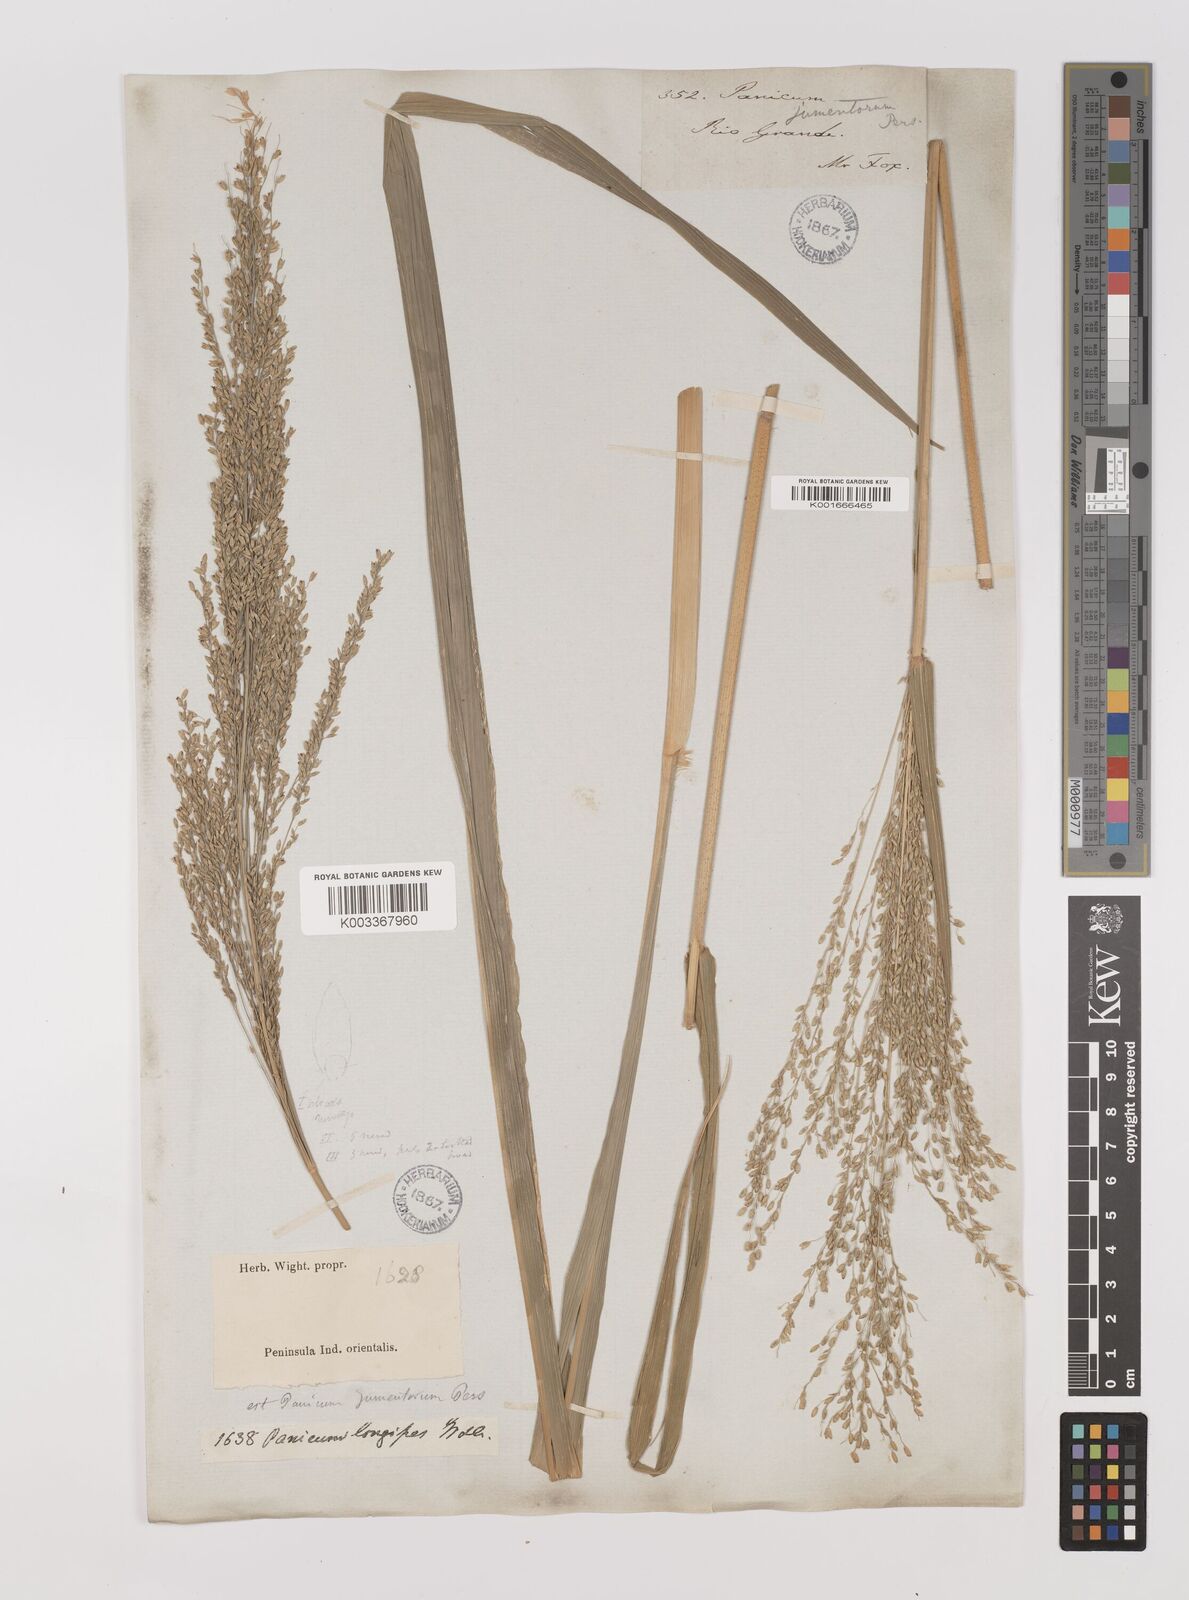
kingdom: Plantae
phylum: Tracheophyta
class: Liliopsida
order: Poales
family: Poaceae
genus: Megathyrsus
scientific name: Megathyrsus maximus
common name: Guineagrass
